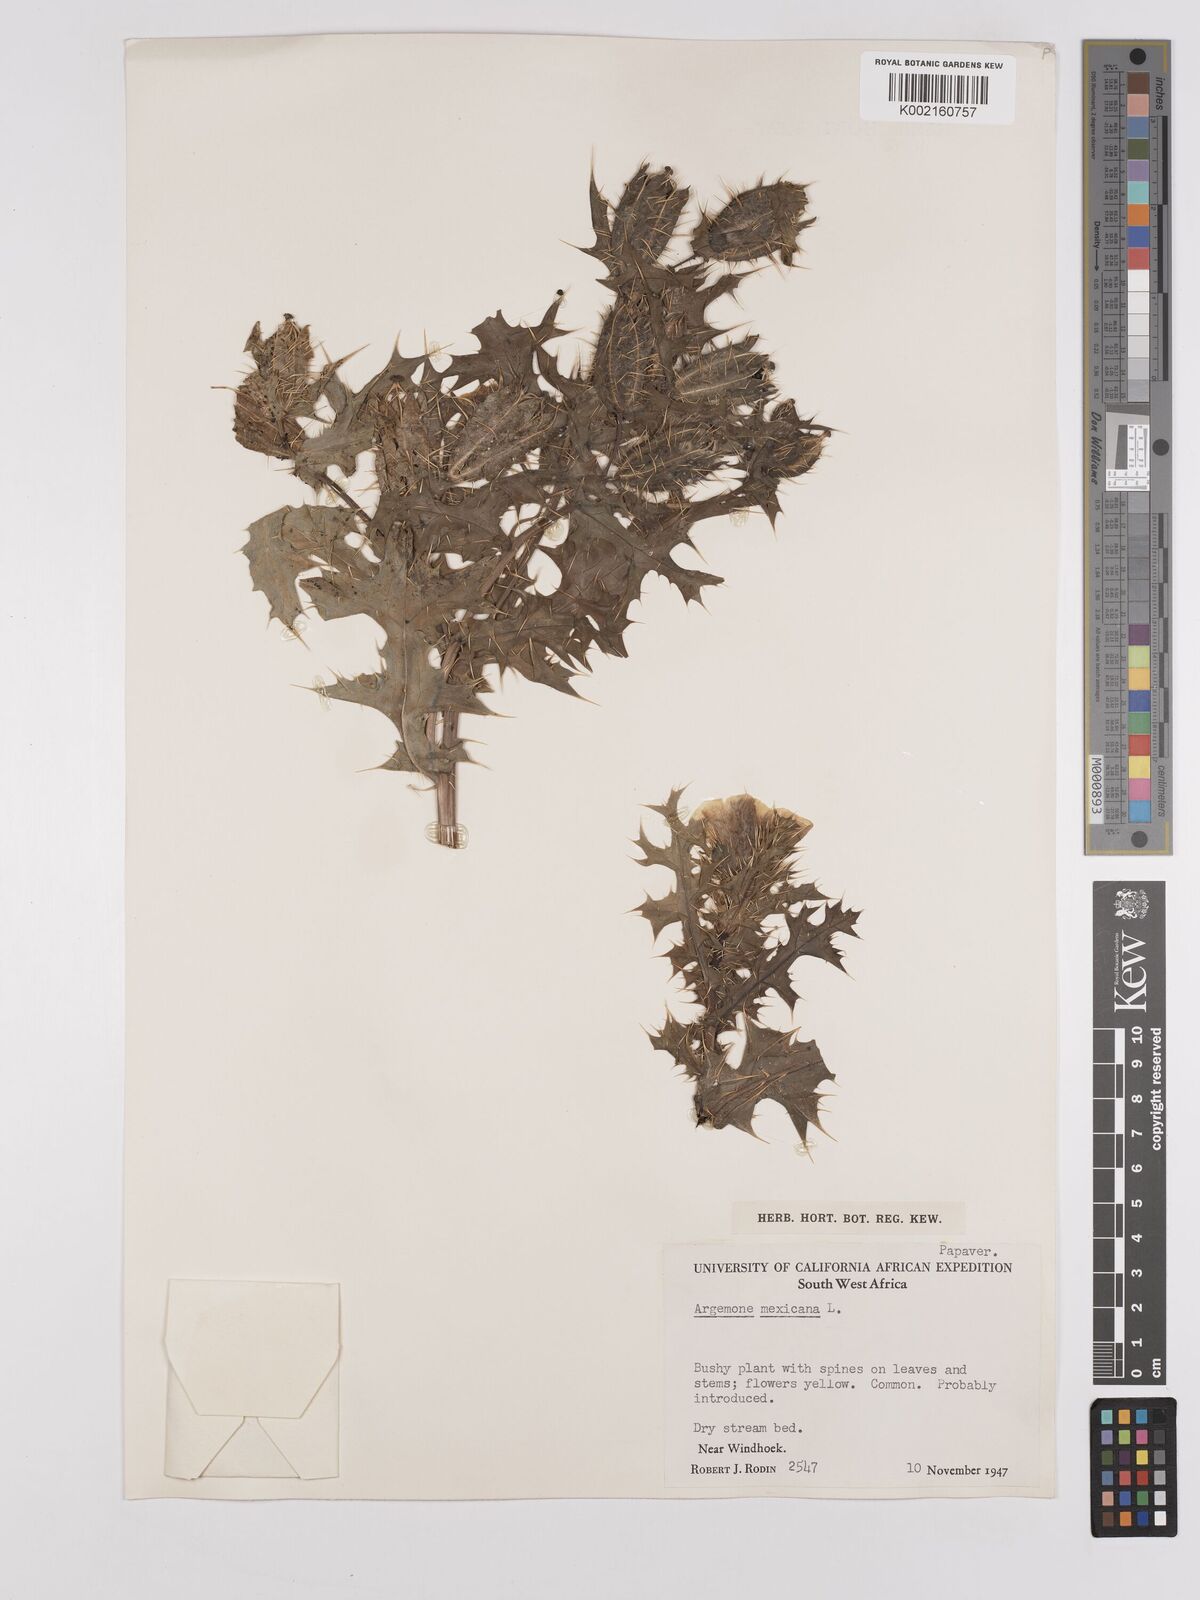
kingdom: Plantae
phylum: Tracheophyta
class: Magnoliopsida
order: Ranunculales
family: Papaveraceae
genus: Argemone
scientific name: Argemone mexicana
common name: Mexican poppy
